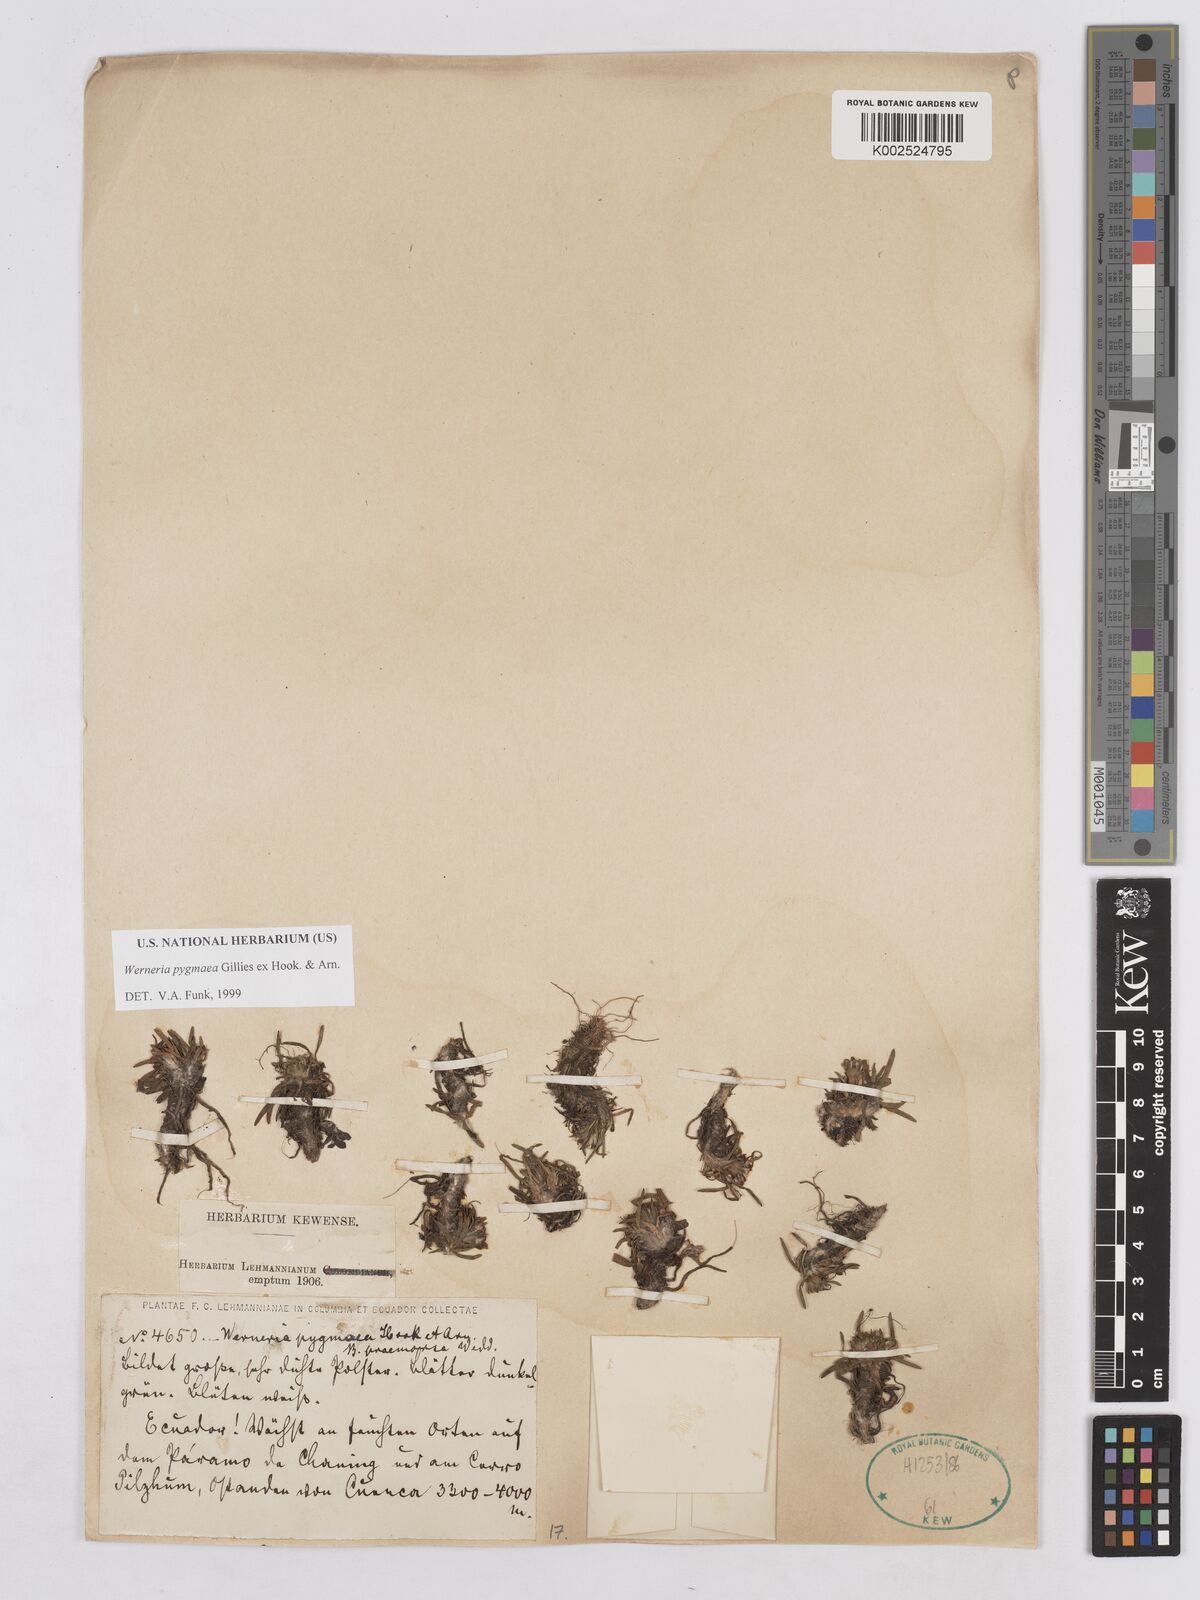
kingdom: Plantae
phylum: Tracheophyta
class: Magnoliopsida
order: Asterales
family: Asteraceae
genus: Rockhausenia
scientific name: Rockhausenia pygmaea
